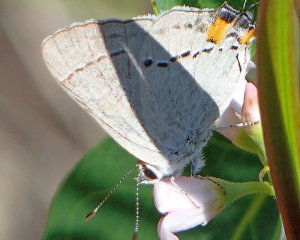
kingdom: Animalia
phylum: Arthropoda
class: Insecta
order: Lepidoptera
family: Lycaenidae
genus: Strymon
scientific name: Strymon melinus
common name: Gray Hairstreak
